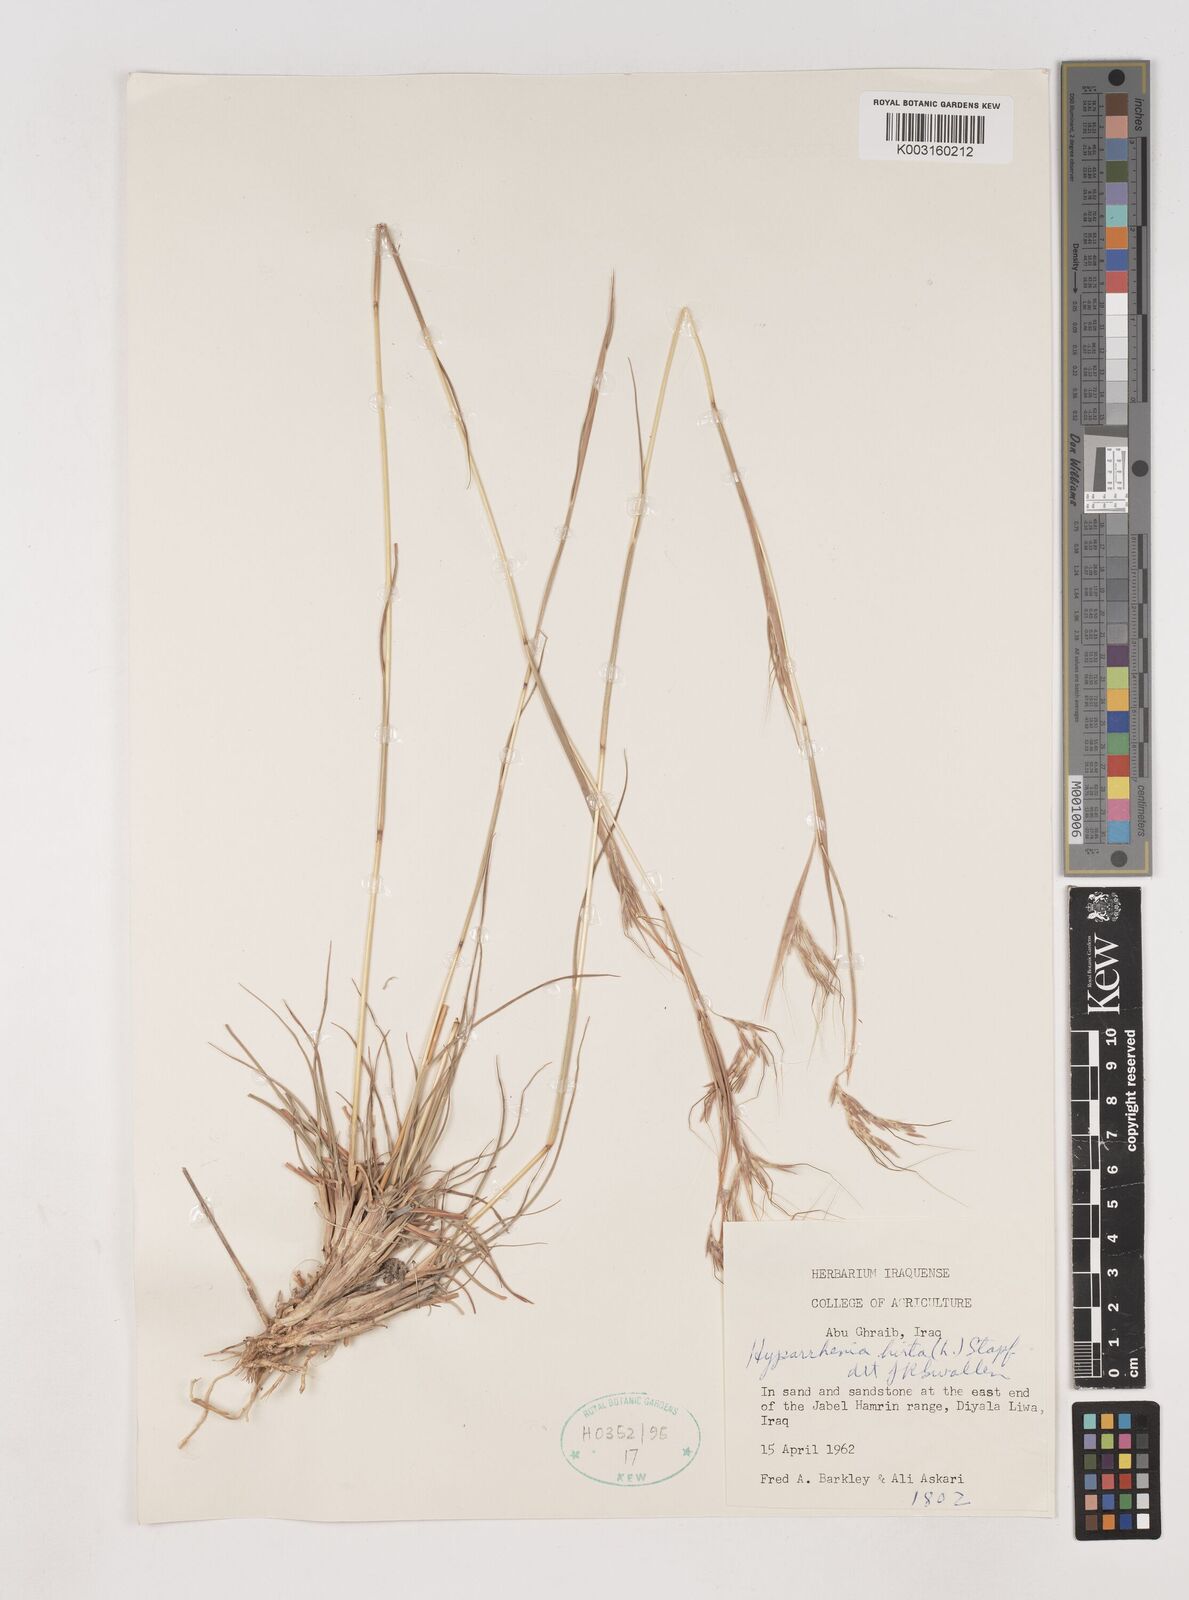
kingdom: Plantae
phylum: Tracheophyta
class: Liliopsida
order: Poales
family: Poaceae
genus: Hyparrhenia
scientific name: Hyparrhenia hirta
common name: Thatching grass
